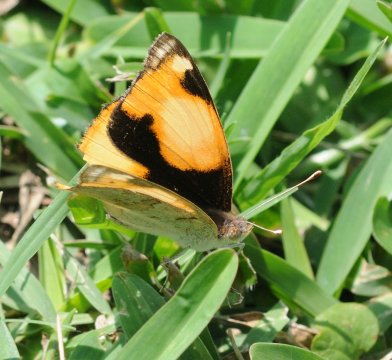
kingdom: Animalia
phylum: Arthropoda
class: Insecta
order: Lepidoptera
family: Nymphalidae
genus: Junonia
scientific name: Junonia hierta
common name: Yellow Pansy
